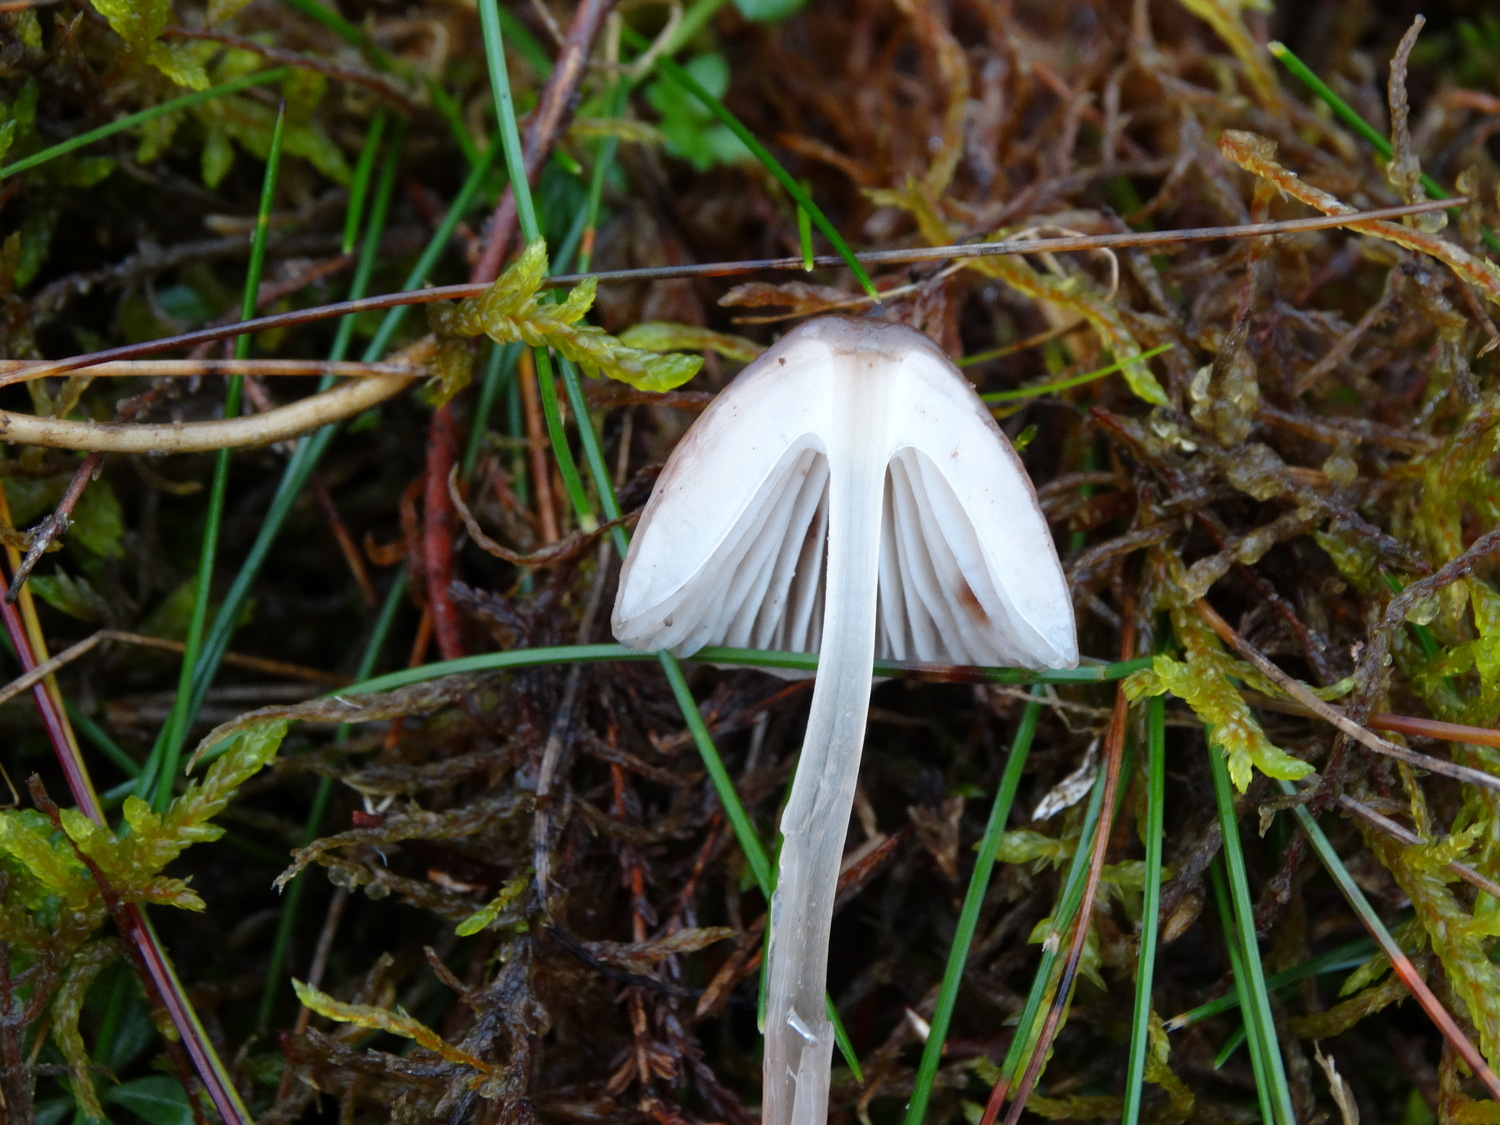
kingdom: Fungi
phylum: Basidiomycota
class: Agaricomycetes
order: Agaricales
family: Mycenaceae
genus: Mycena
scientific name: Mycena
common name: huesvamp
